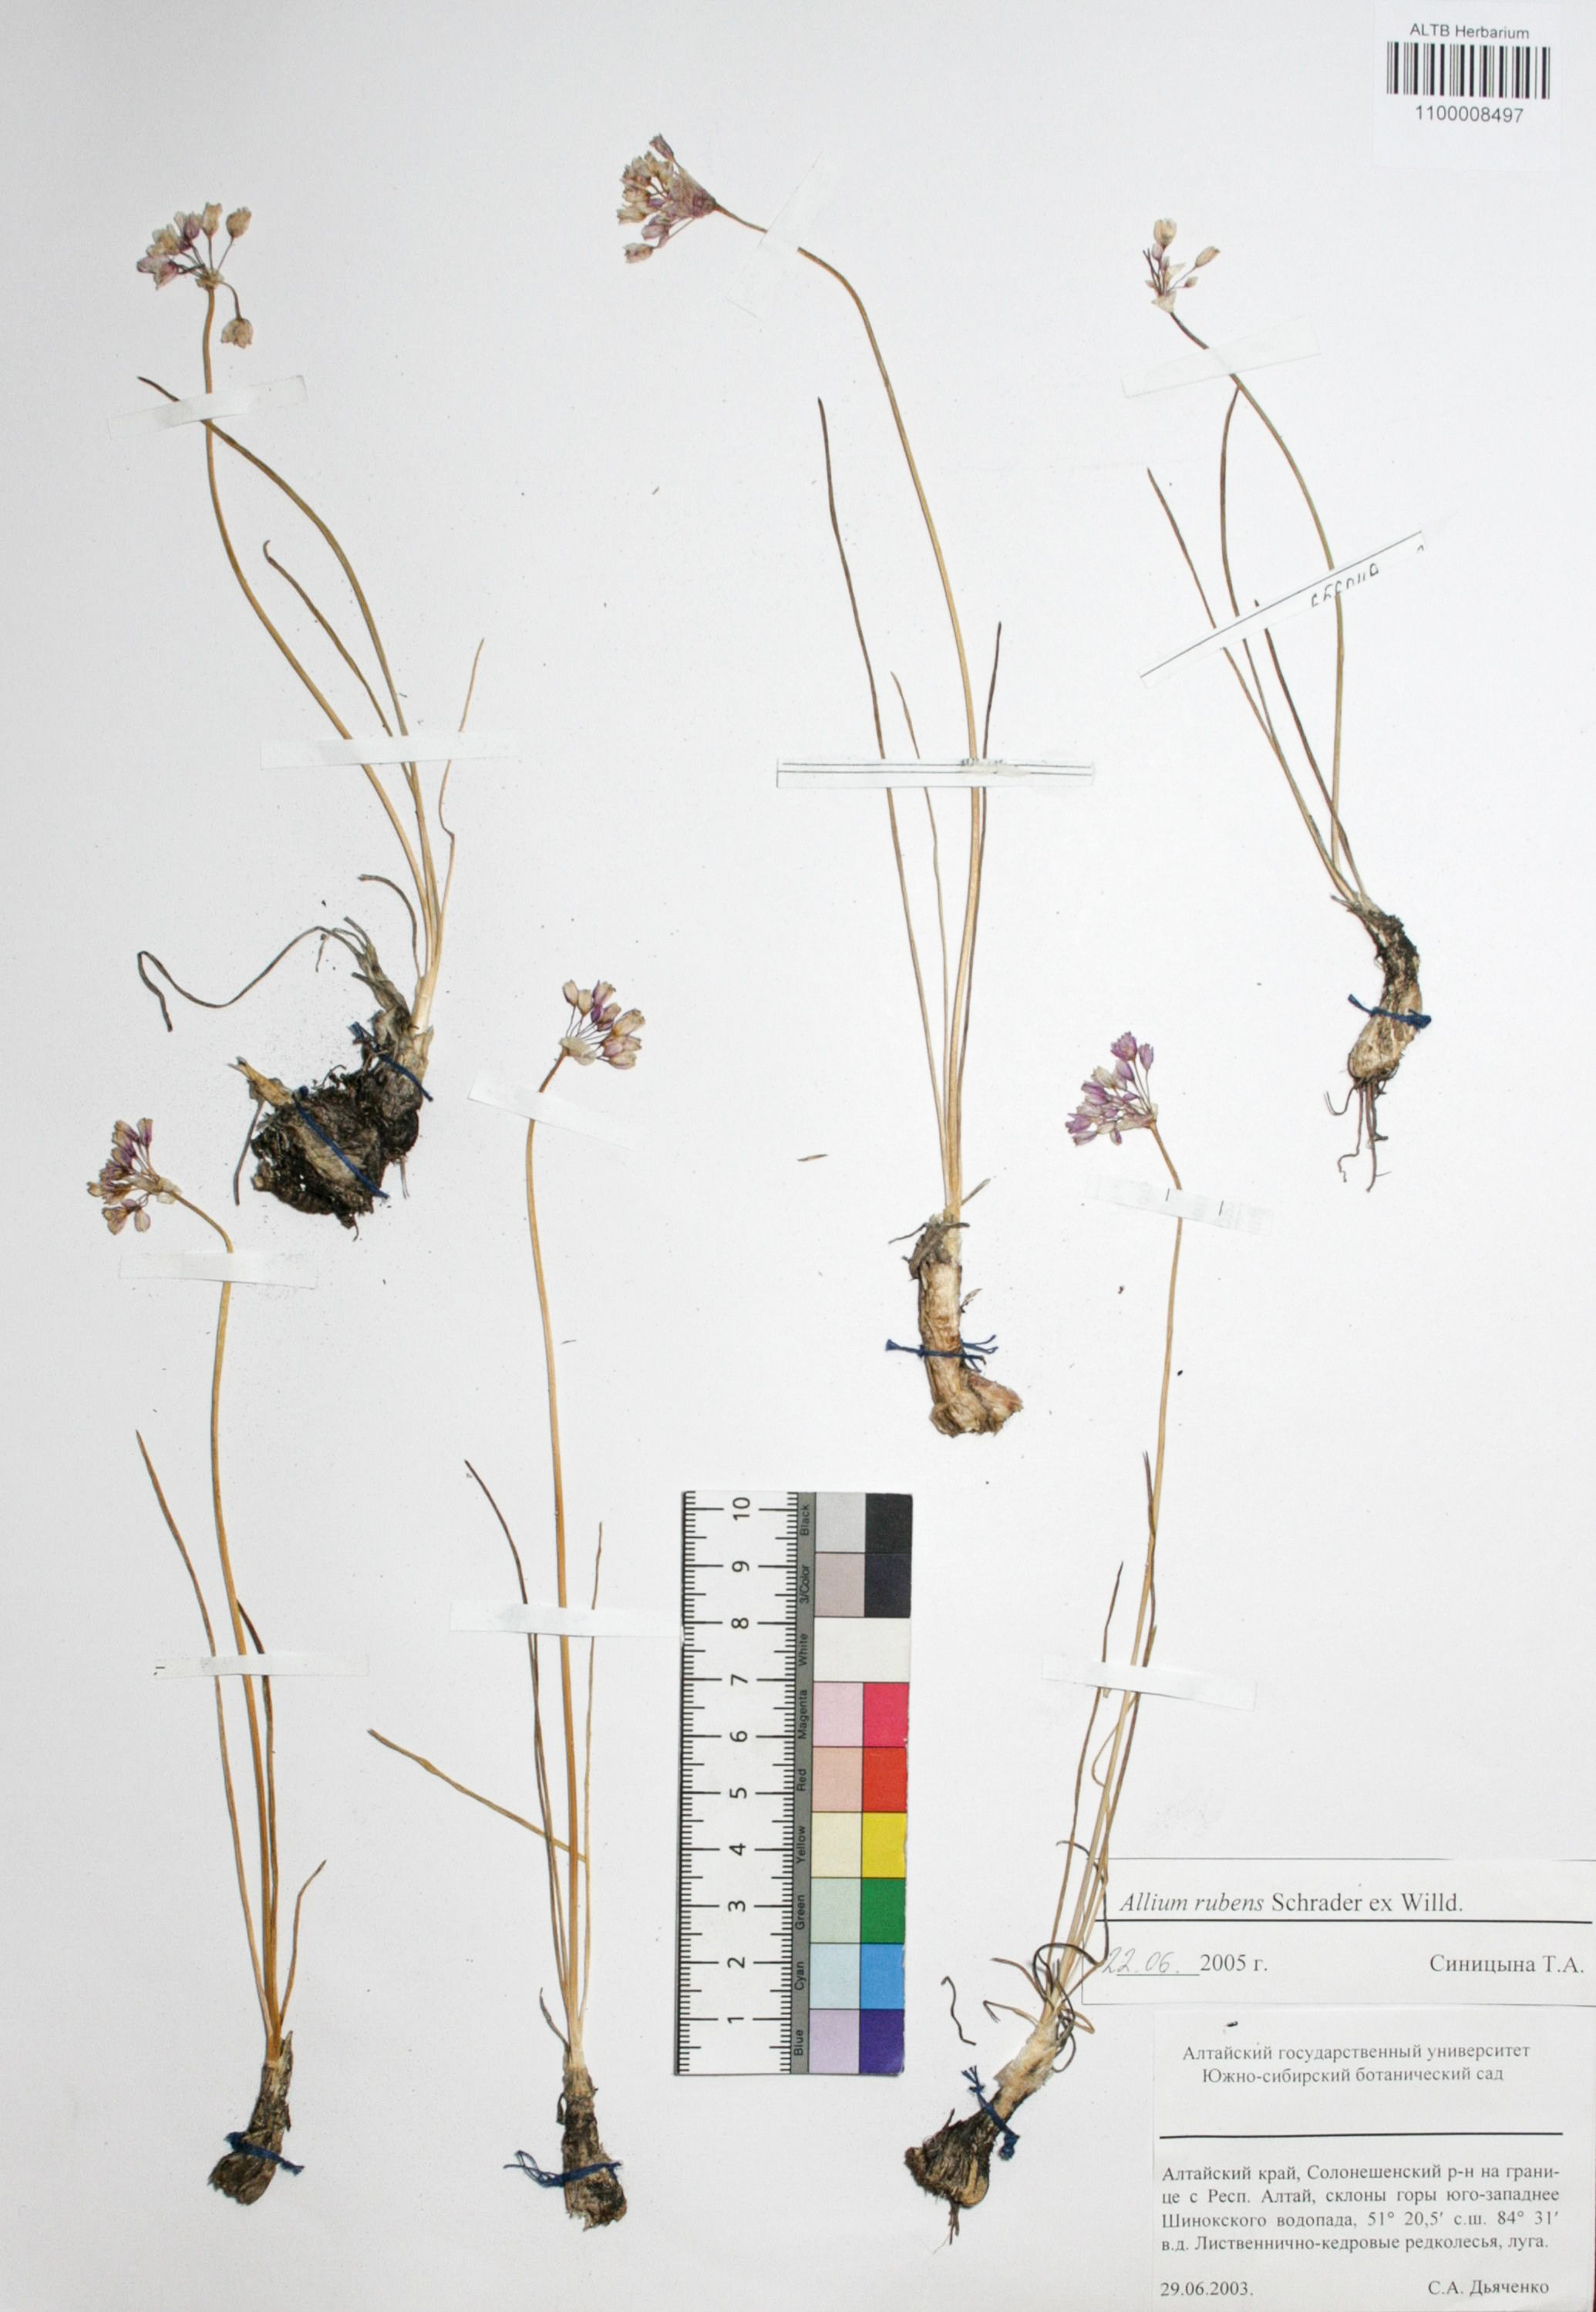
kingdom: Plantae
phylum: Tracheophyta
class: Liliopsida
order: Asparagales
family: Amaryllidaceae
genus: Allium
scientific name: Allium rubens
